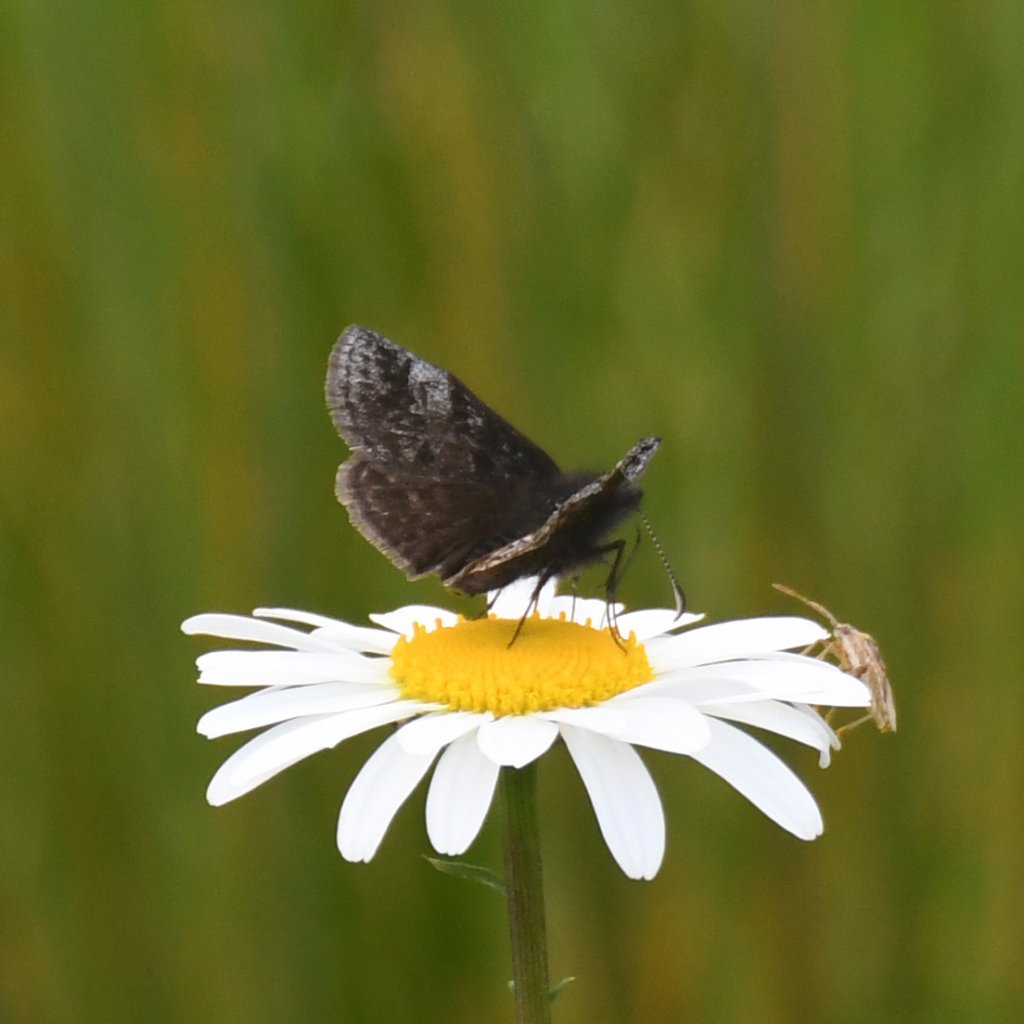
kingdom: Animalia
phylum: Arthropoda
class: Insecta
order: Lepidoptera
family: Hesperiidae
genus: Erynnis
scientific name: Erynnis icelus
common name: Dreamy Duskywing
